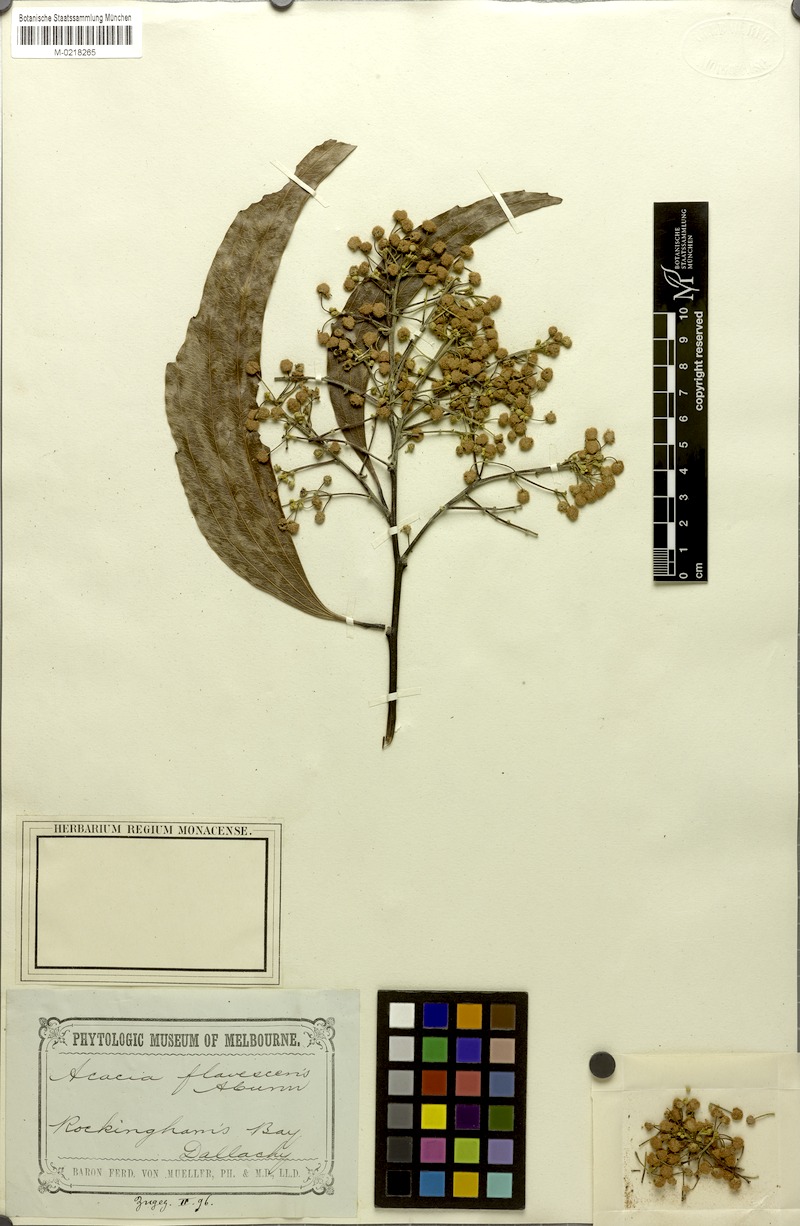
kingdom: Plantae
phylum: Tracheophyta
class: Magnoliopsida
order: Fabales
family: Fabaceae
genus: Acacia
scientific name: Acacia flavescens
